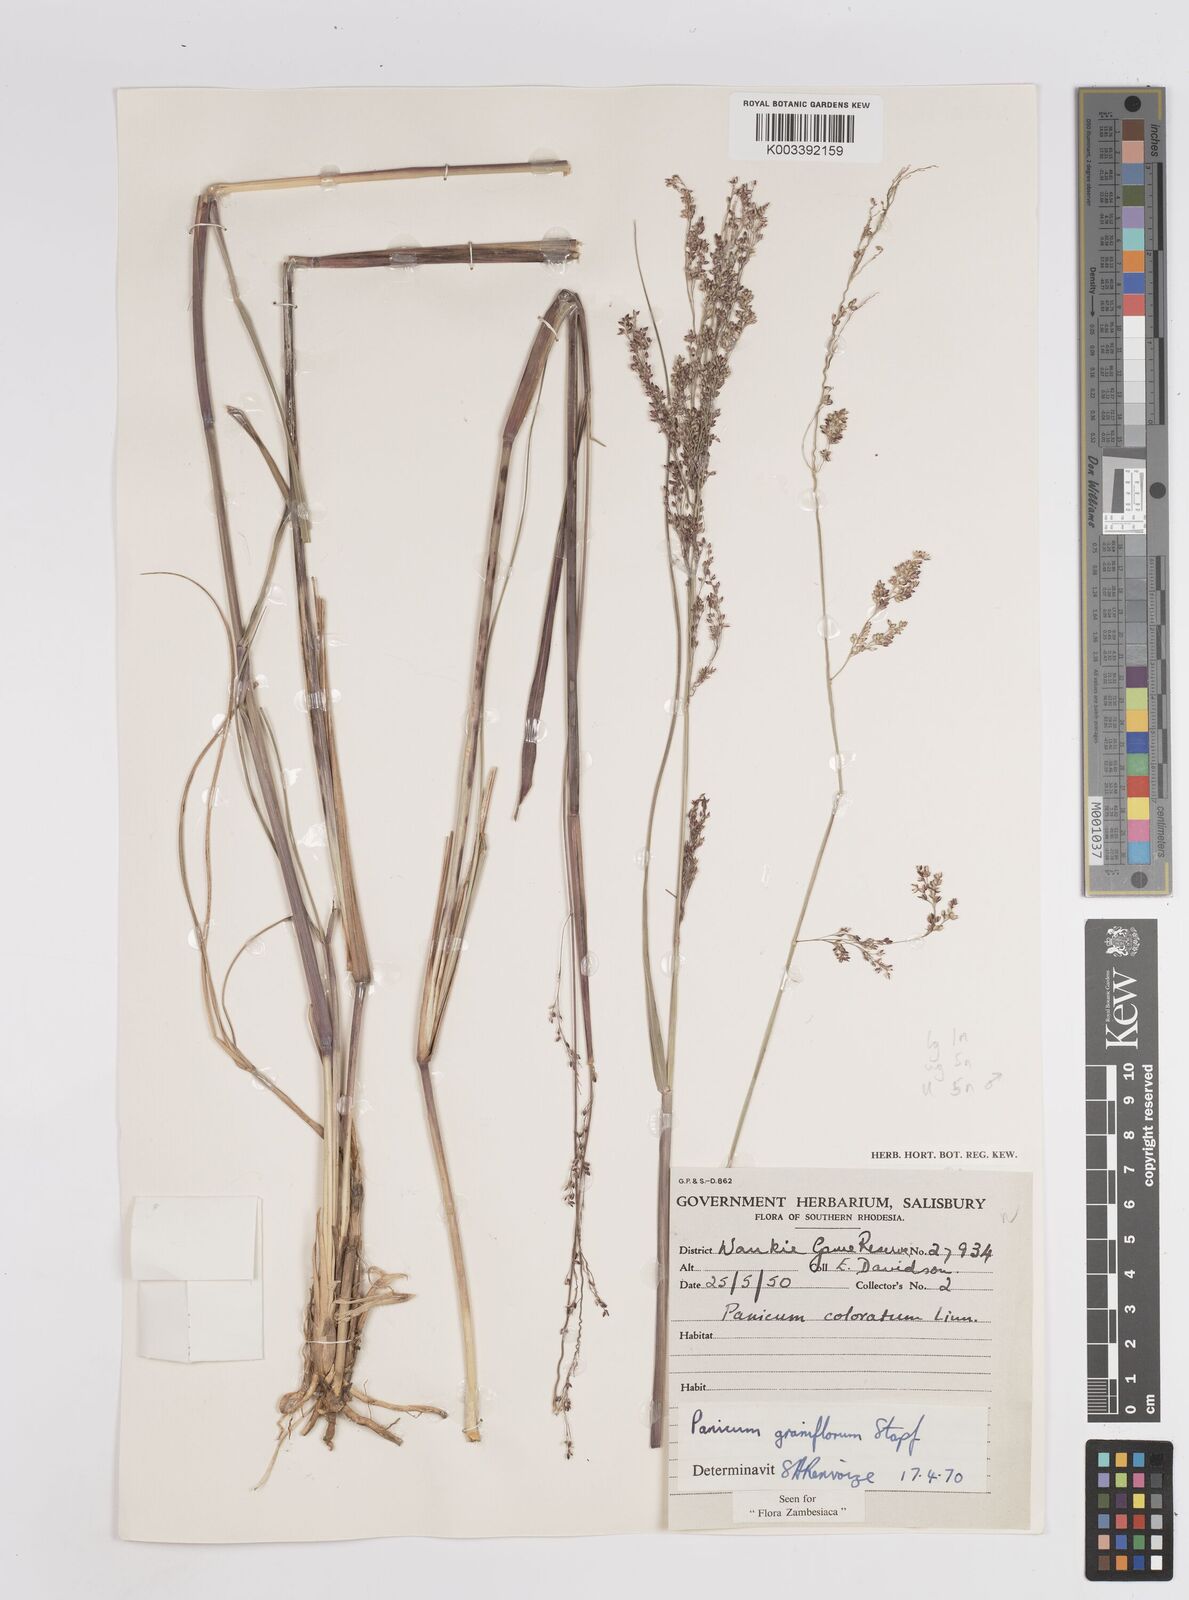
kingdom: Plantae
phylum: Tracheophyta
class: Liliopsida
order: Poales
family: Poaceae
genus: Panicum
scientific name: Panicum graniflorum
